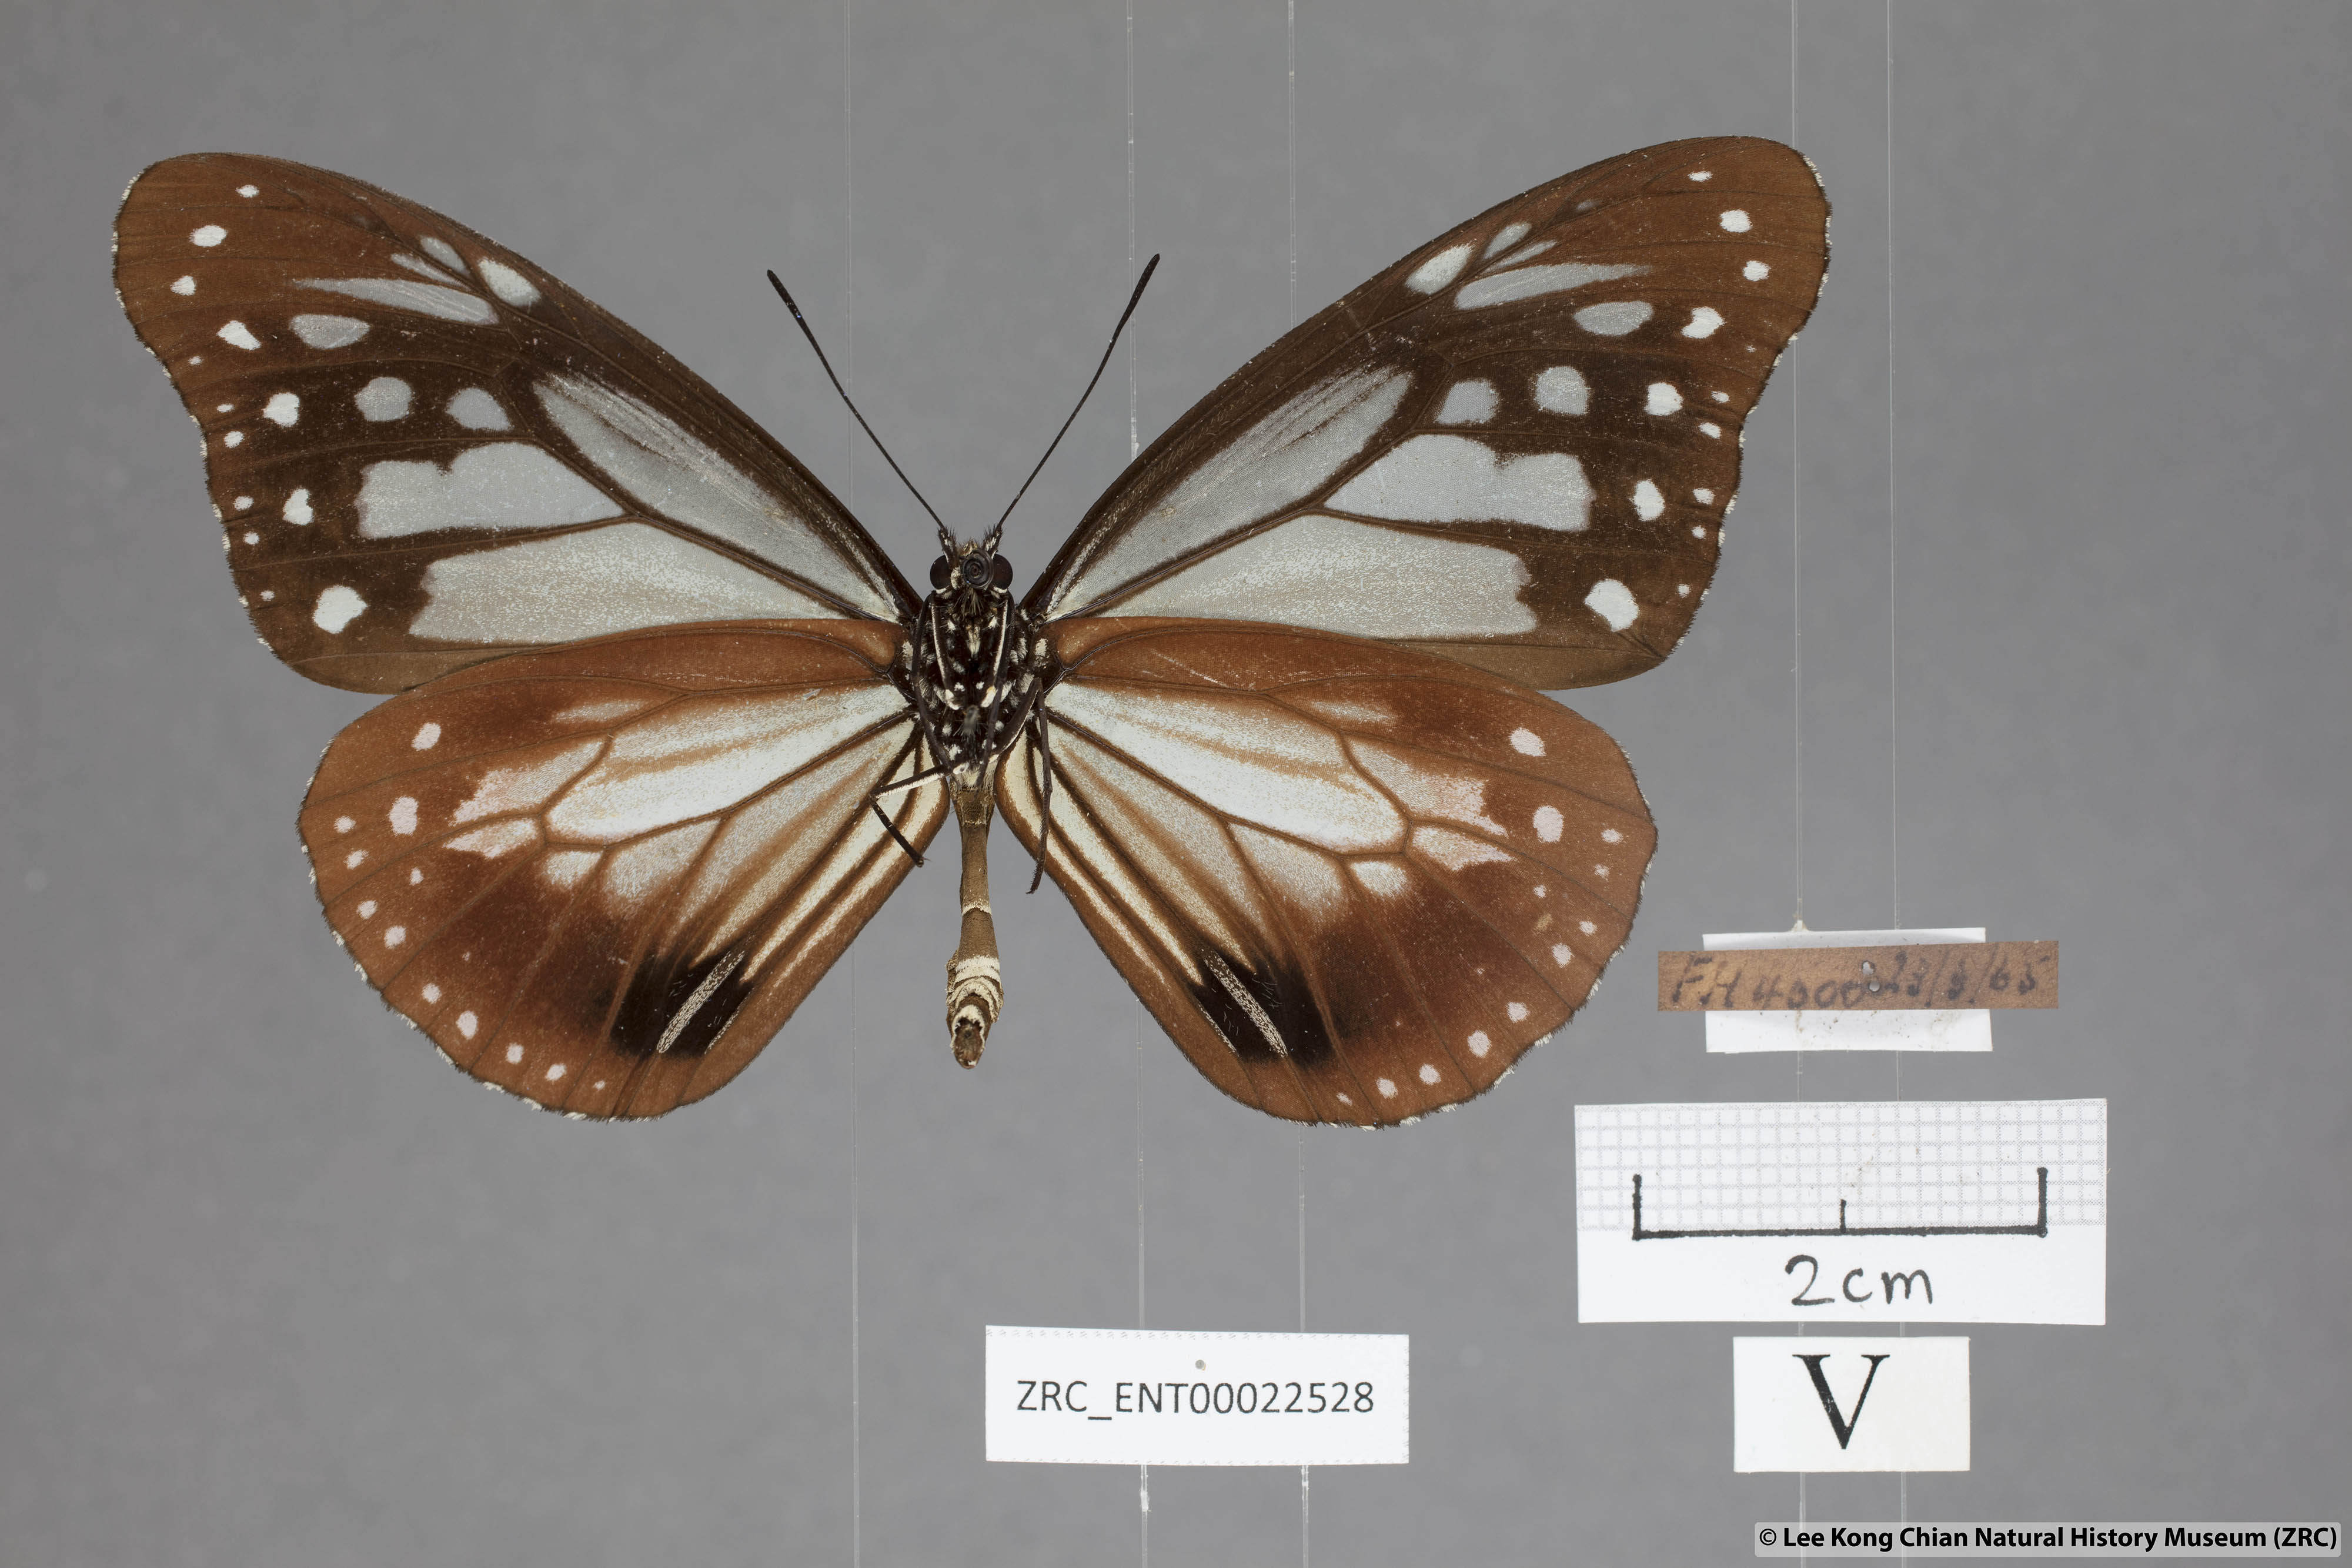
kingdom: Animalia
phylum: Arthropoda
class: Insecta
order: Lepidoptera
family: Nymphalidae
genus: Parantica
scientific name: Parantica sita
